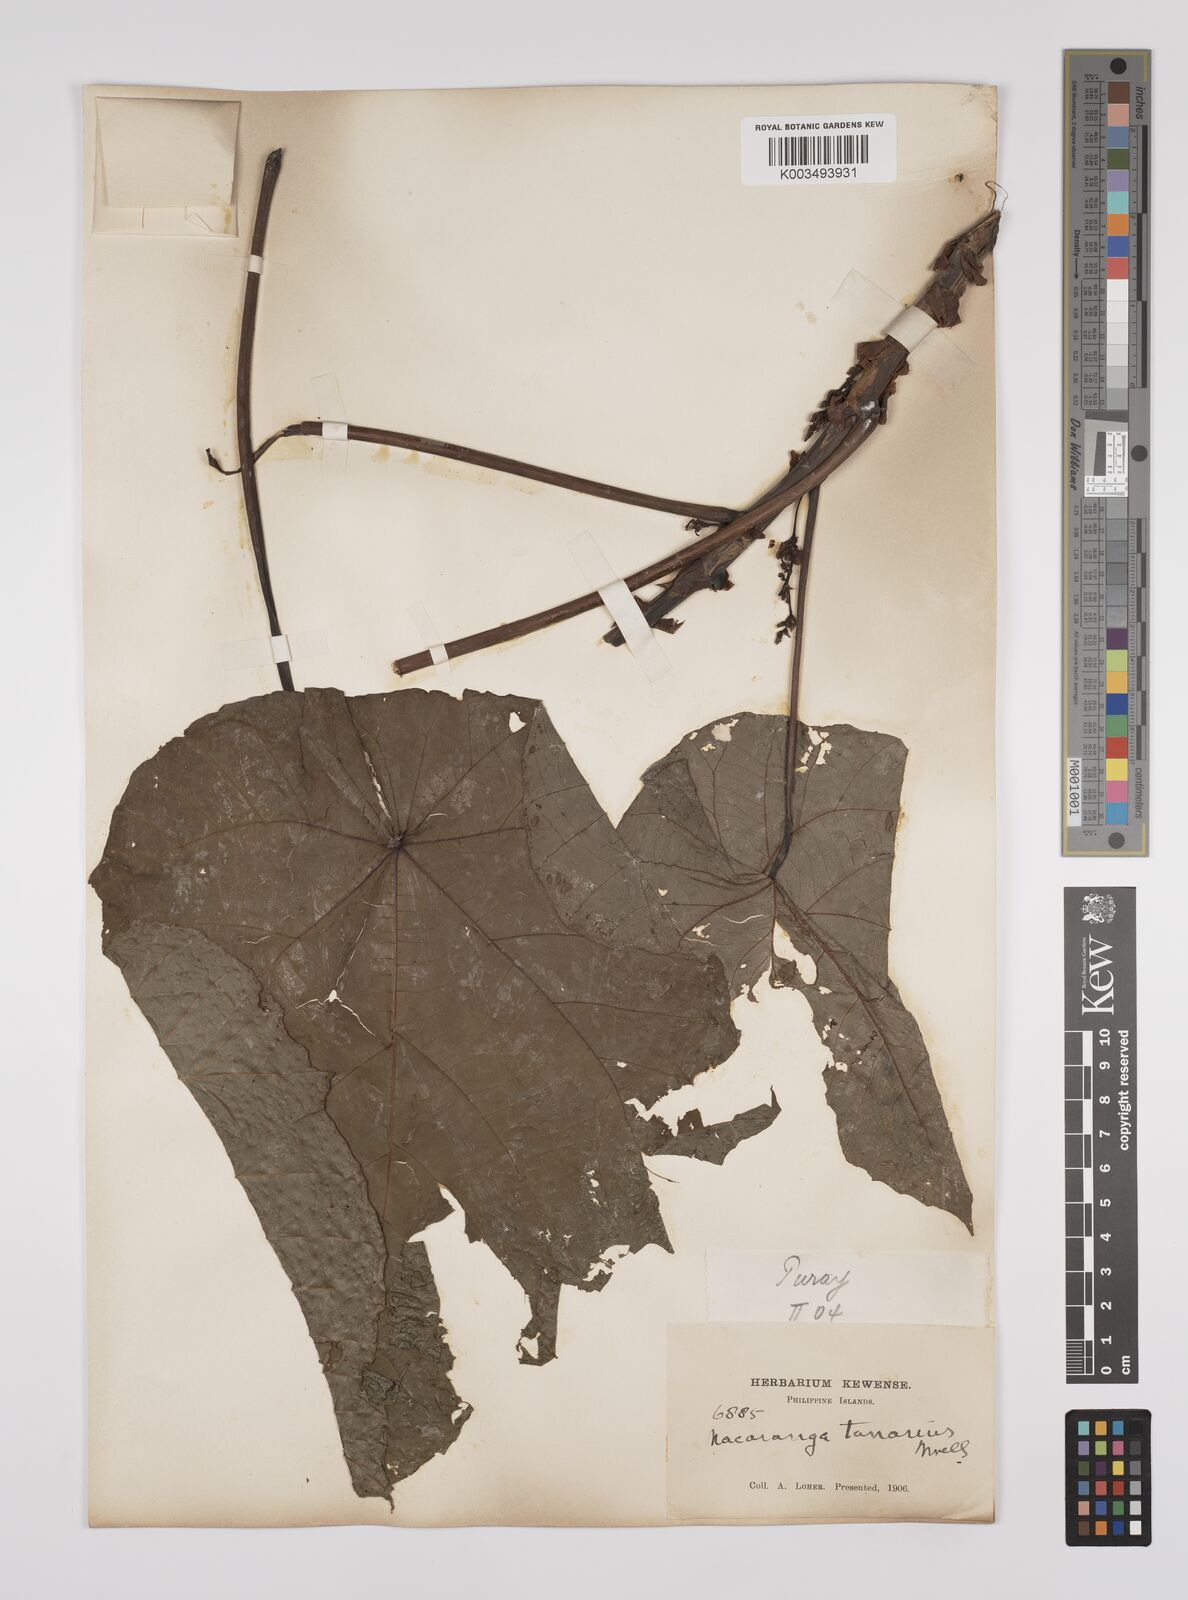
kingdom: Plantae
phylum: Tracheophyta
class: Magnoliopsida
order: Malpighiales
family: Euphorbiaceae
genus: Macaranga
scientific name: Macaranga tanarius
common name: Parasol leaf tree
